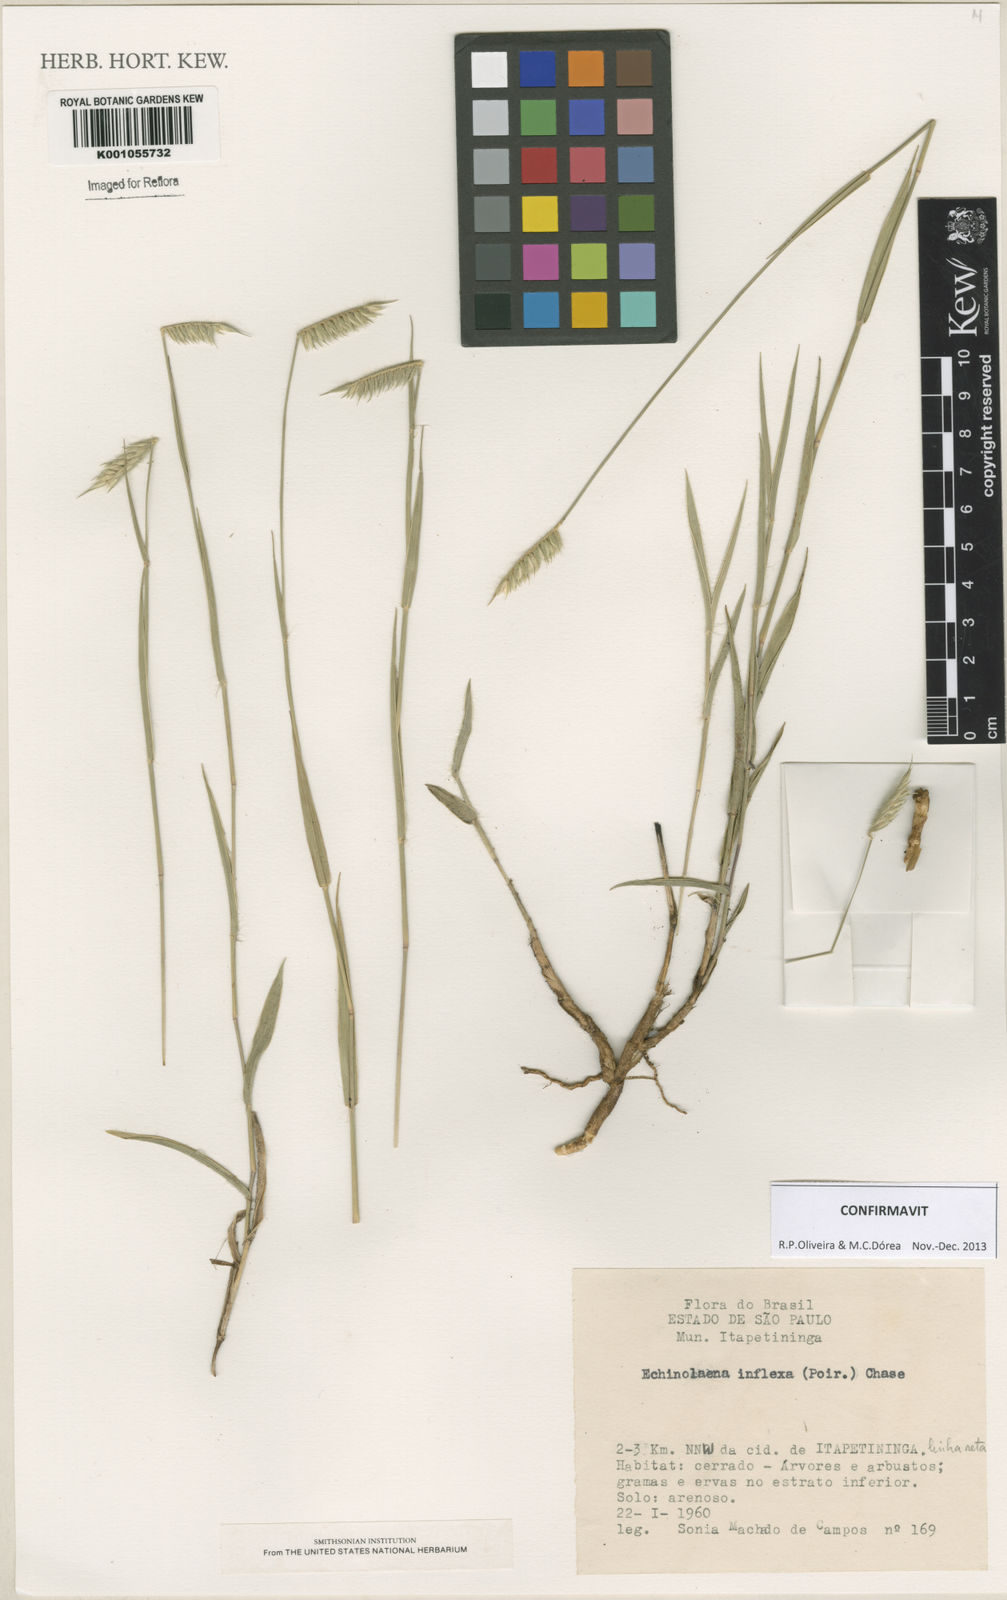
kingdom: Plantae
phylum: Tracheophyta
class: Liliopsida
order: Poales
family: Poaceae
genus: Echinolaena
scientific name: Echinolaena inflexa
